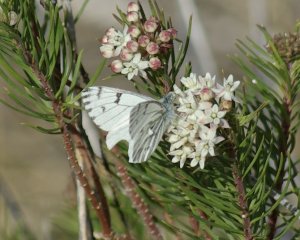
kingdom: Animalia
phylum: Arthropoda
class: Insecta
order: Lepidoptera
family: Pieridae
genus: Pontia
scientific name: Pontia sisymbrii
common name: Spring White
